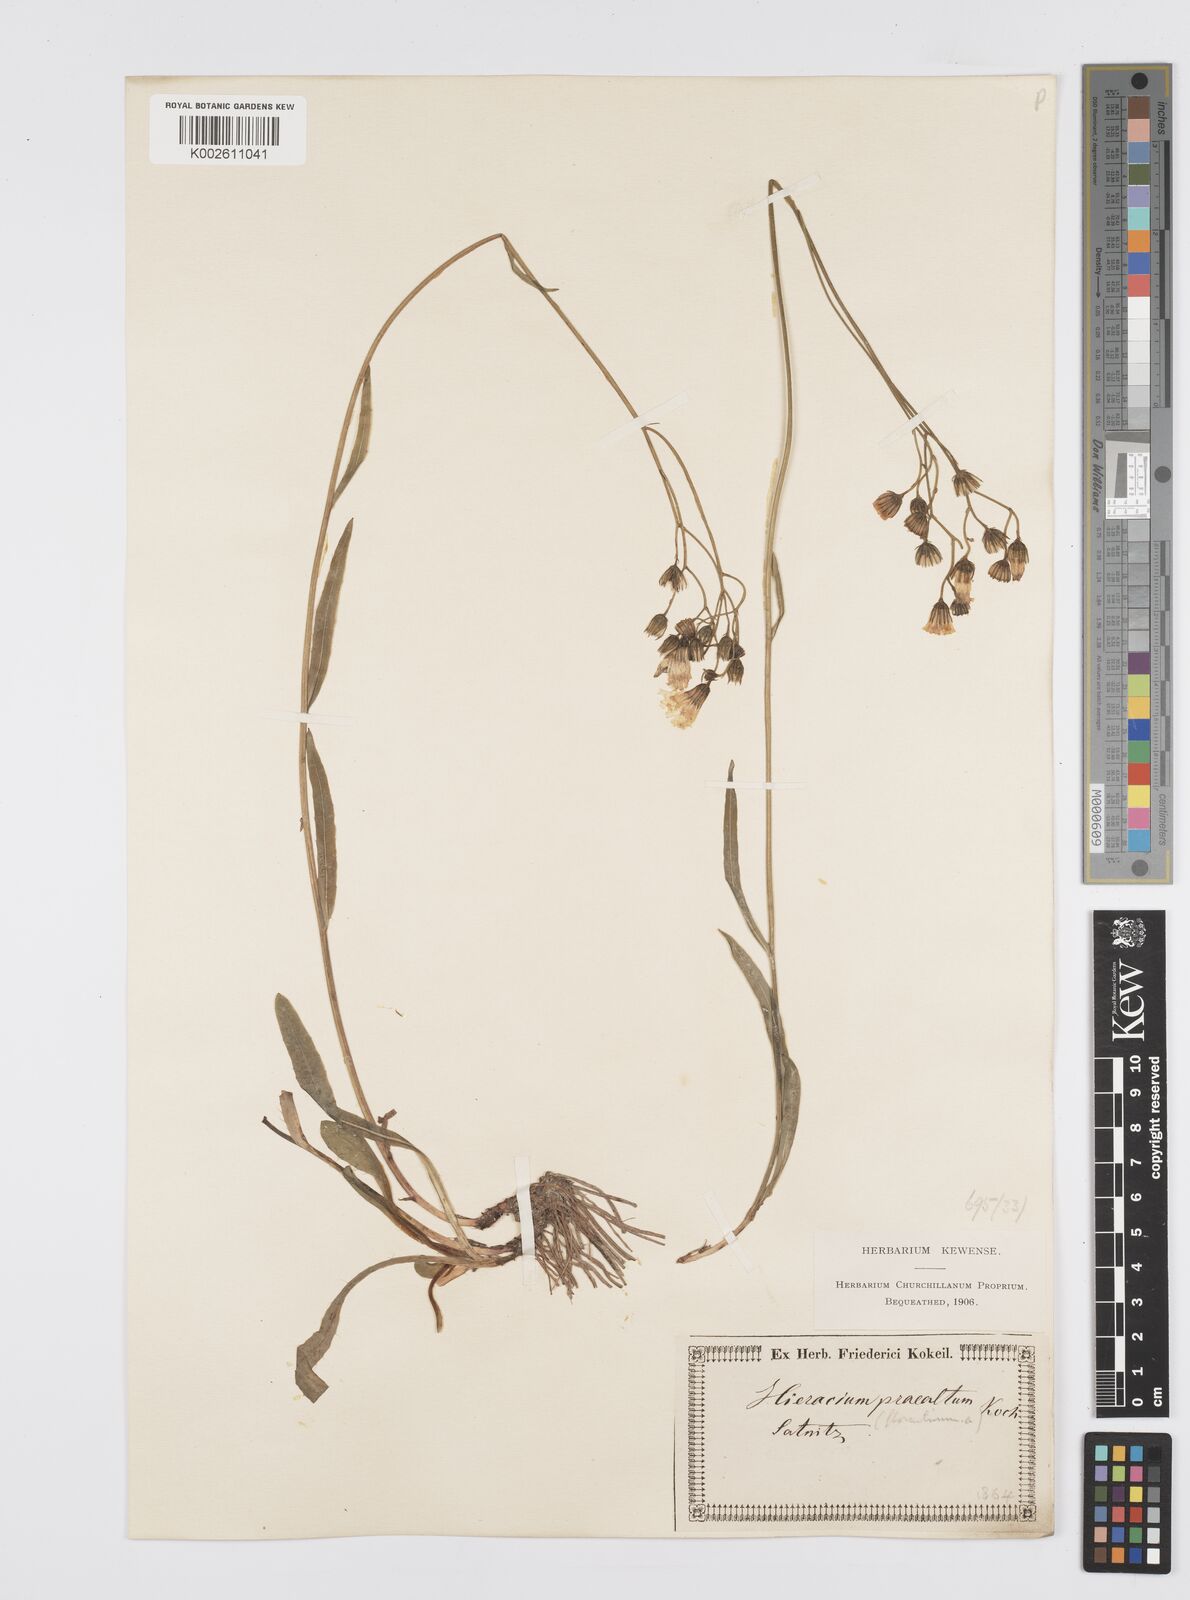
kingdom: Plantae
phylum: Tracheophyta
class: Magnoliopsida
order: Asterales
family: Asteraceae
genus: Pilosella
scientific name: Pilosella piloselloides
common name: Glaucous king-devil
